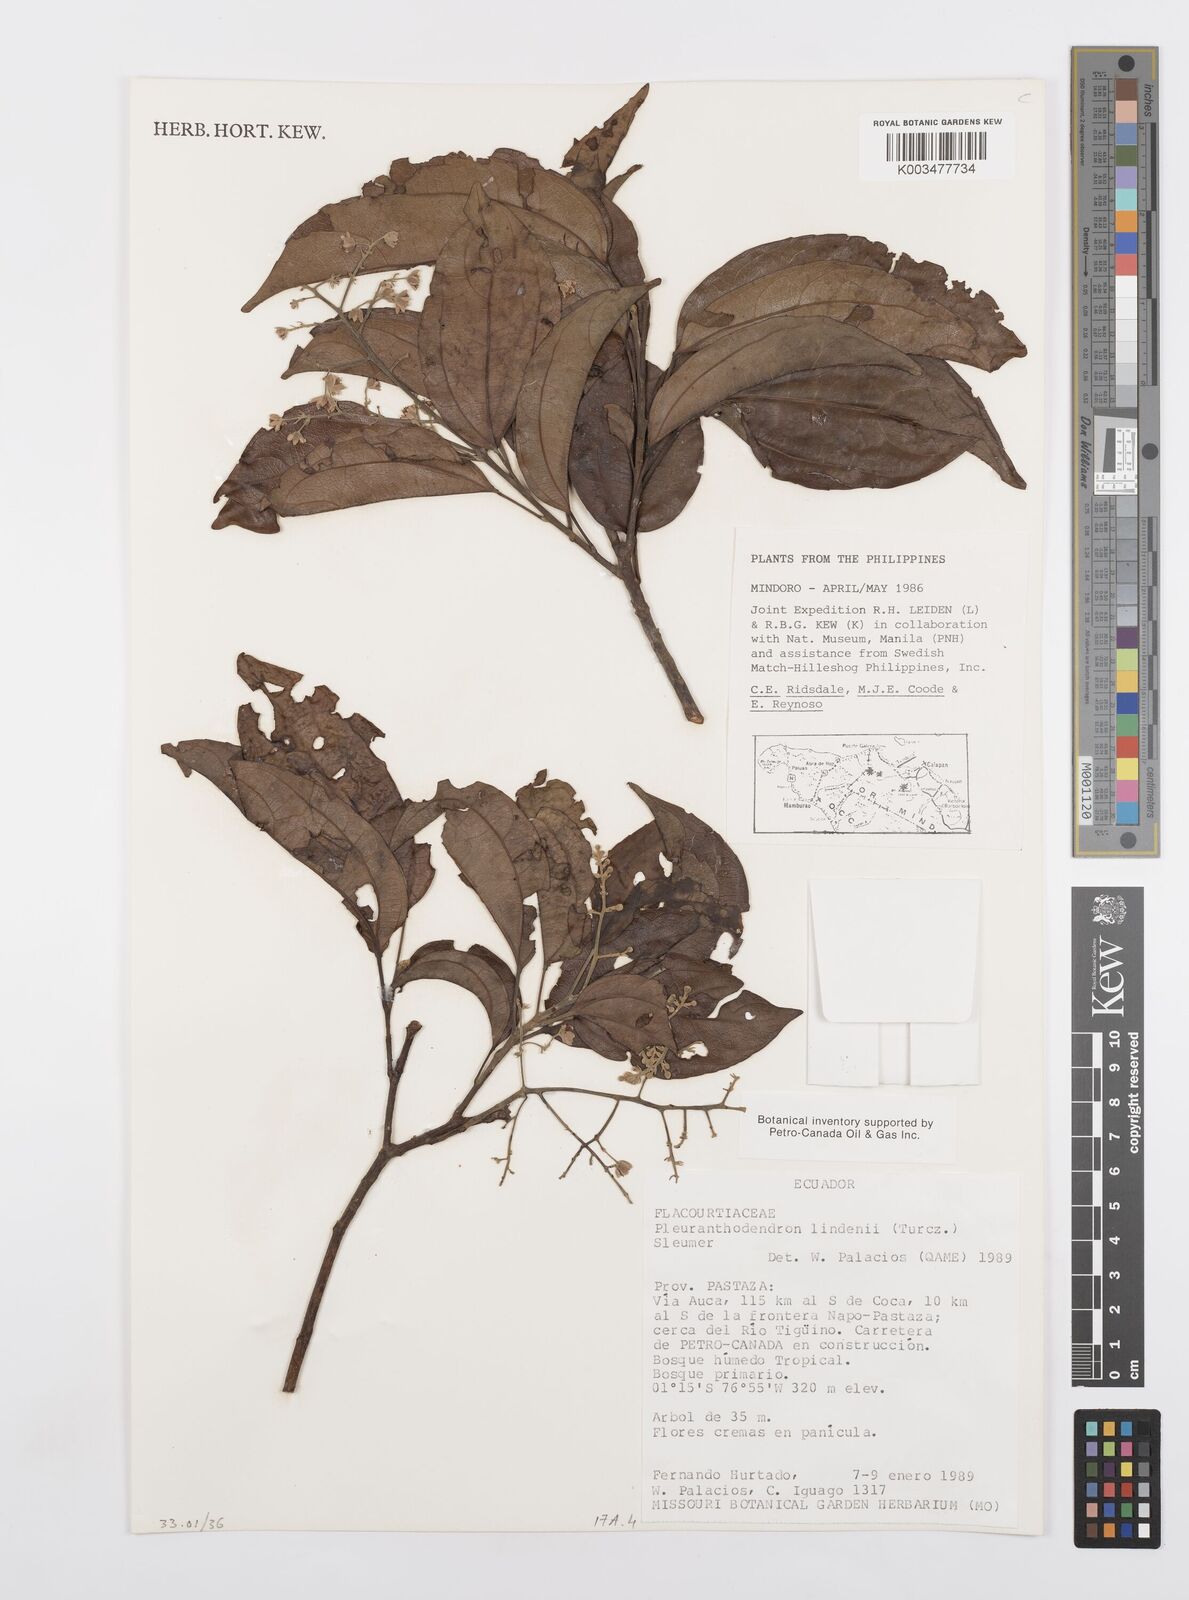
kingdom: Plantae
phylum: Tracheophyta
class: Magnoliopsida
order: Malpighiales
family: Salicaceae
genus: Pleuranthodendron
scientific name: Pleuranthodendron lindenii
